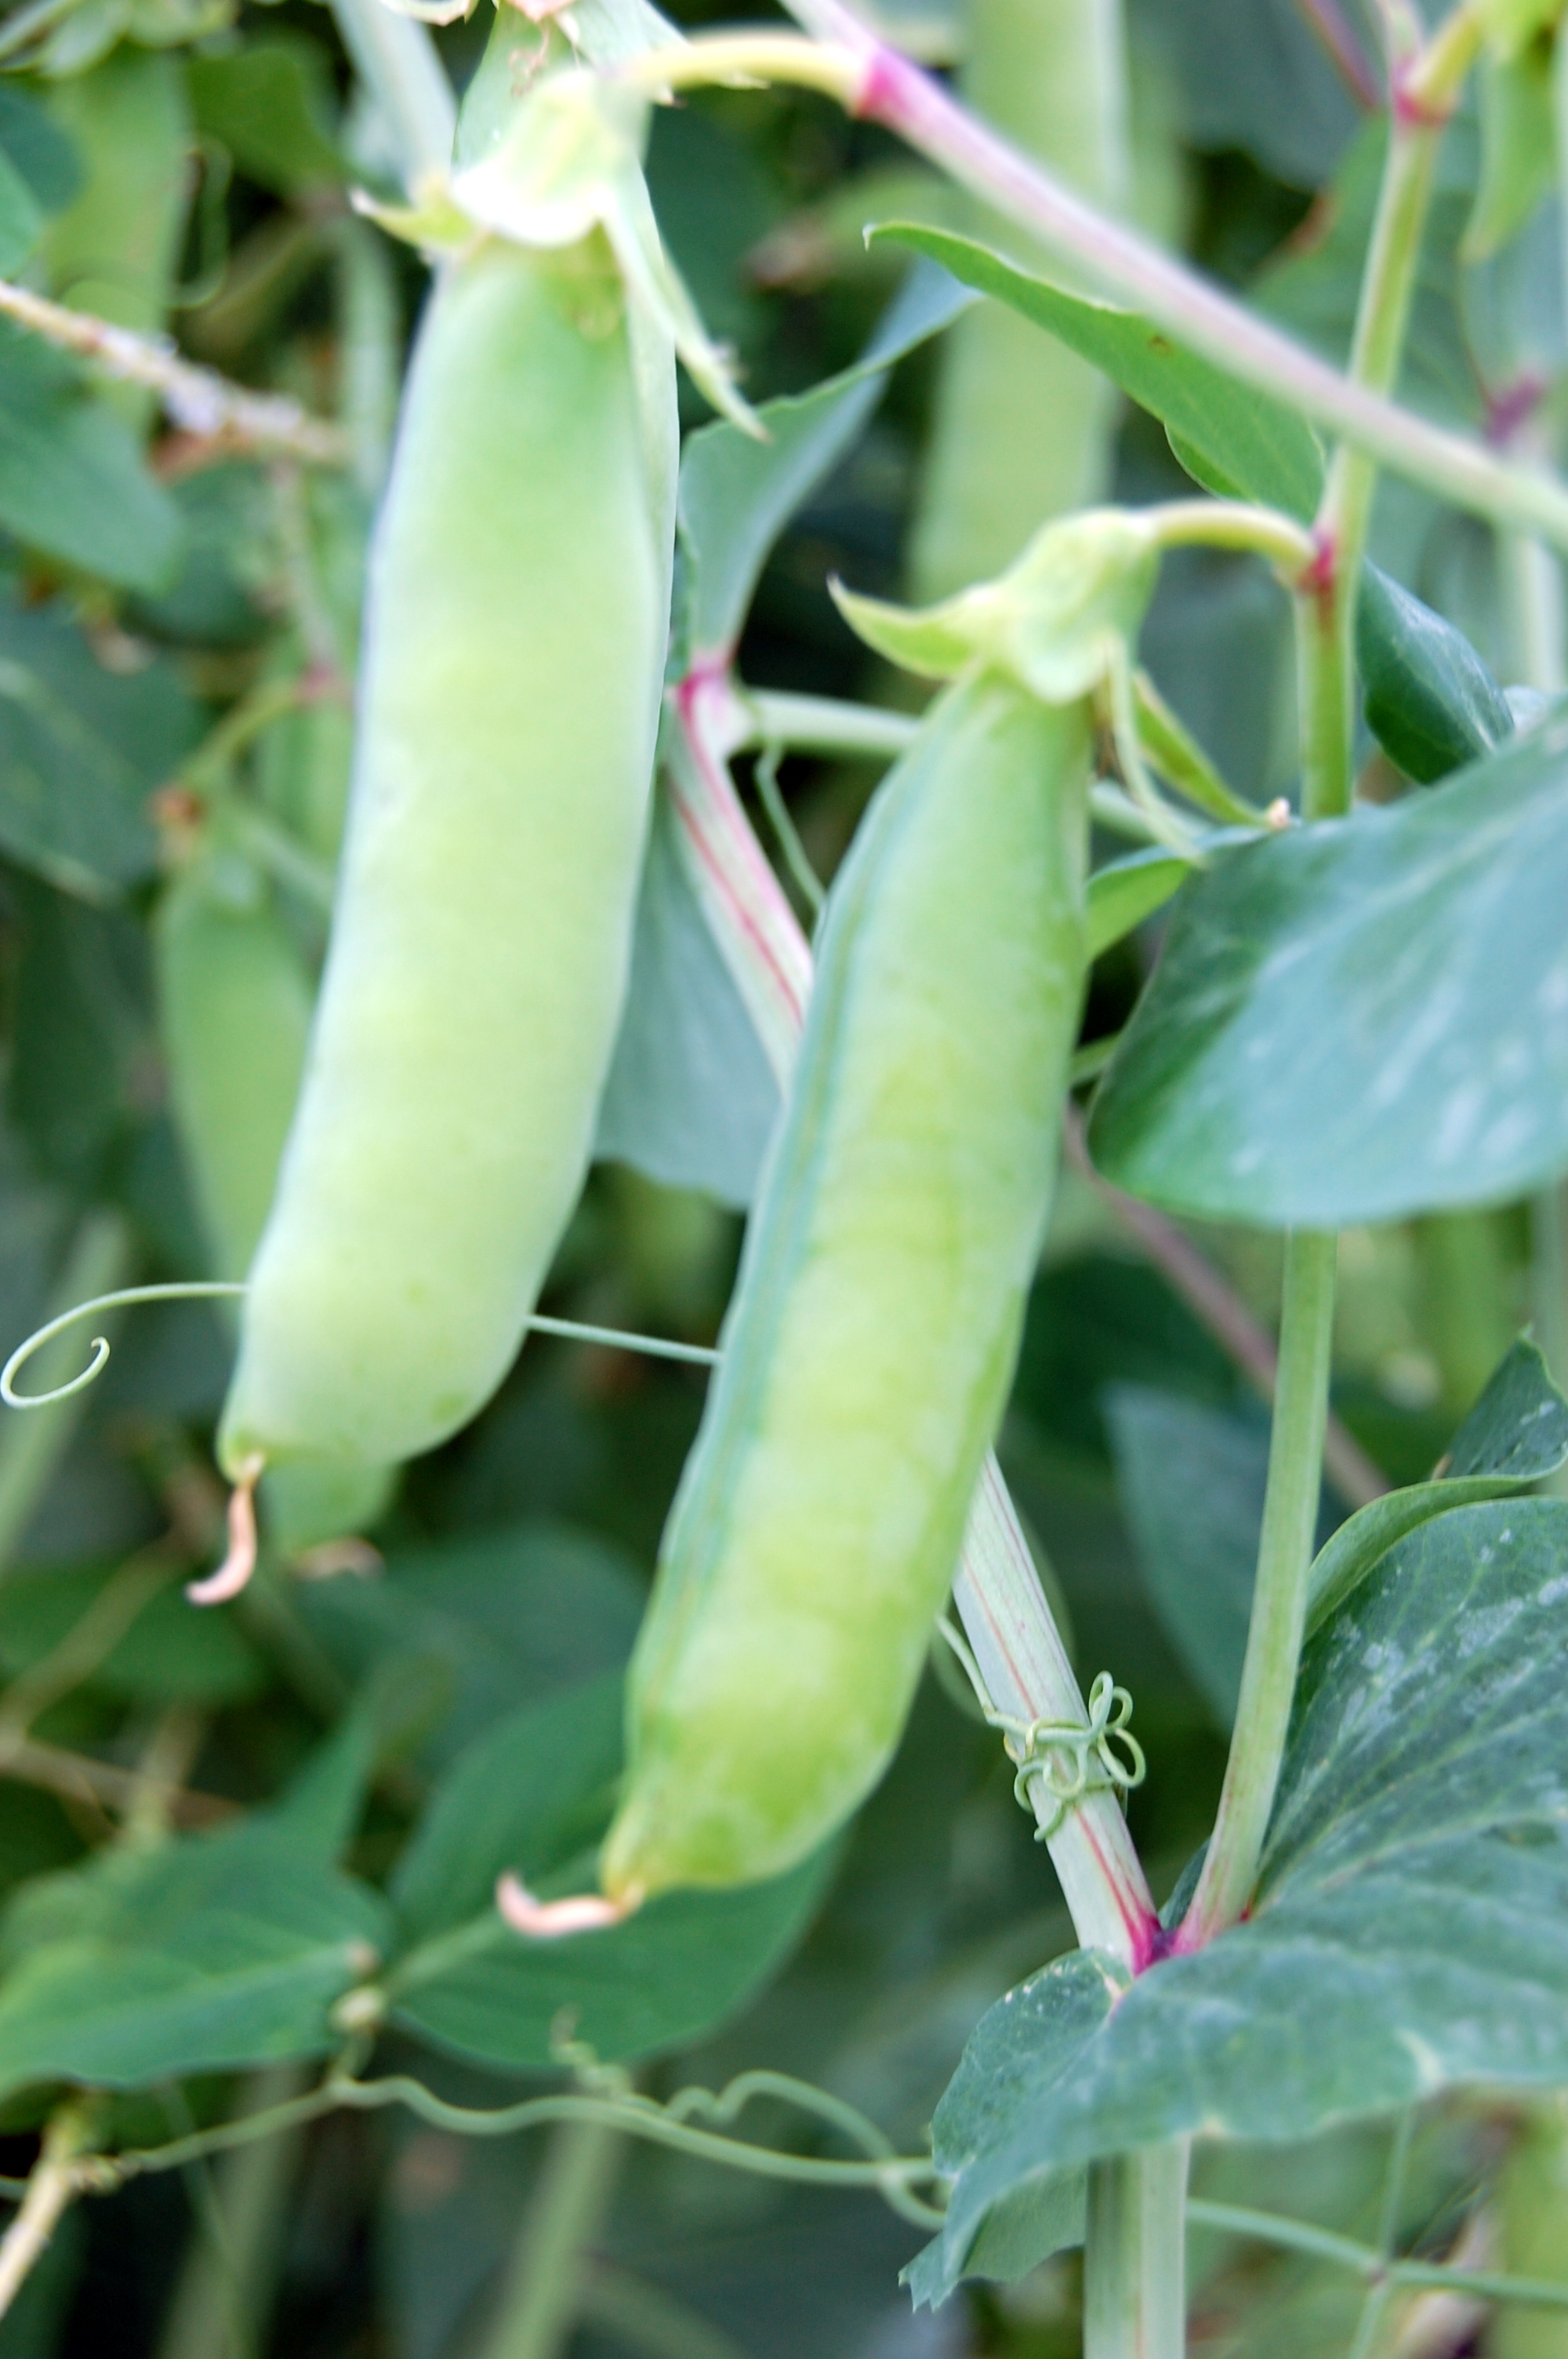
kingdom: Plantae
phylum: Tracheophyta
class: Magnoliopsida
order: Fabales
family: Fabaceae
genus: Lathyrus
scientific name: Lathyrus oleraceus
